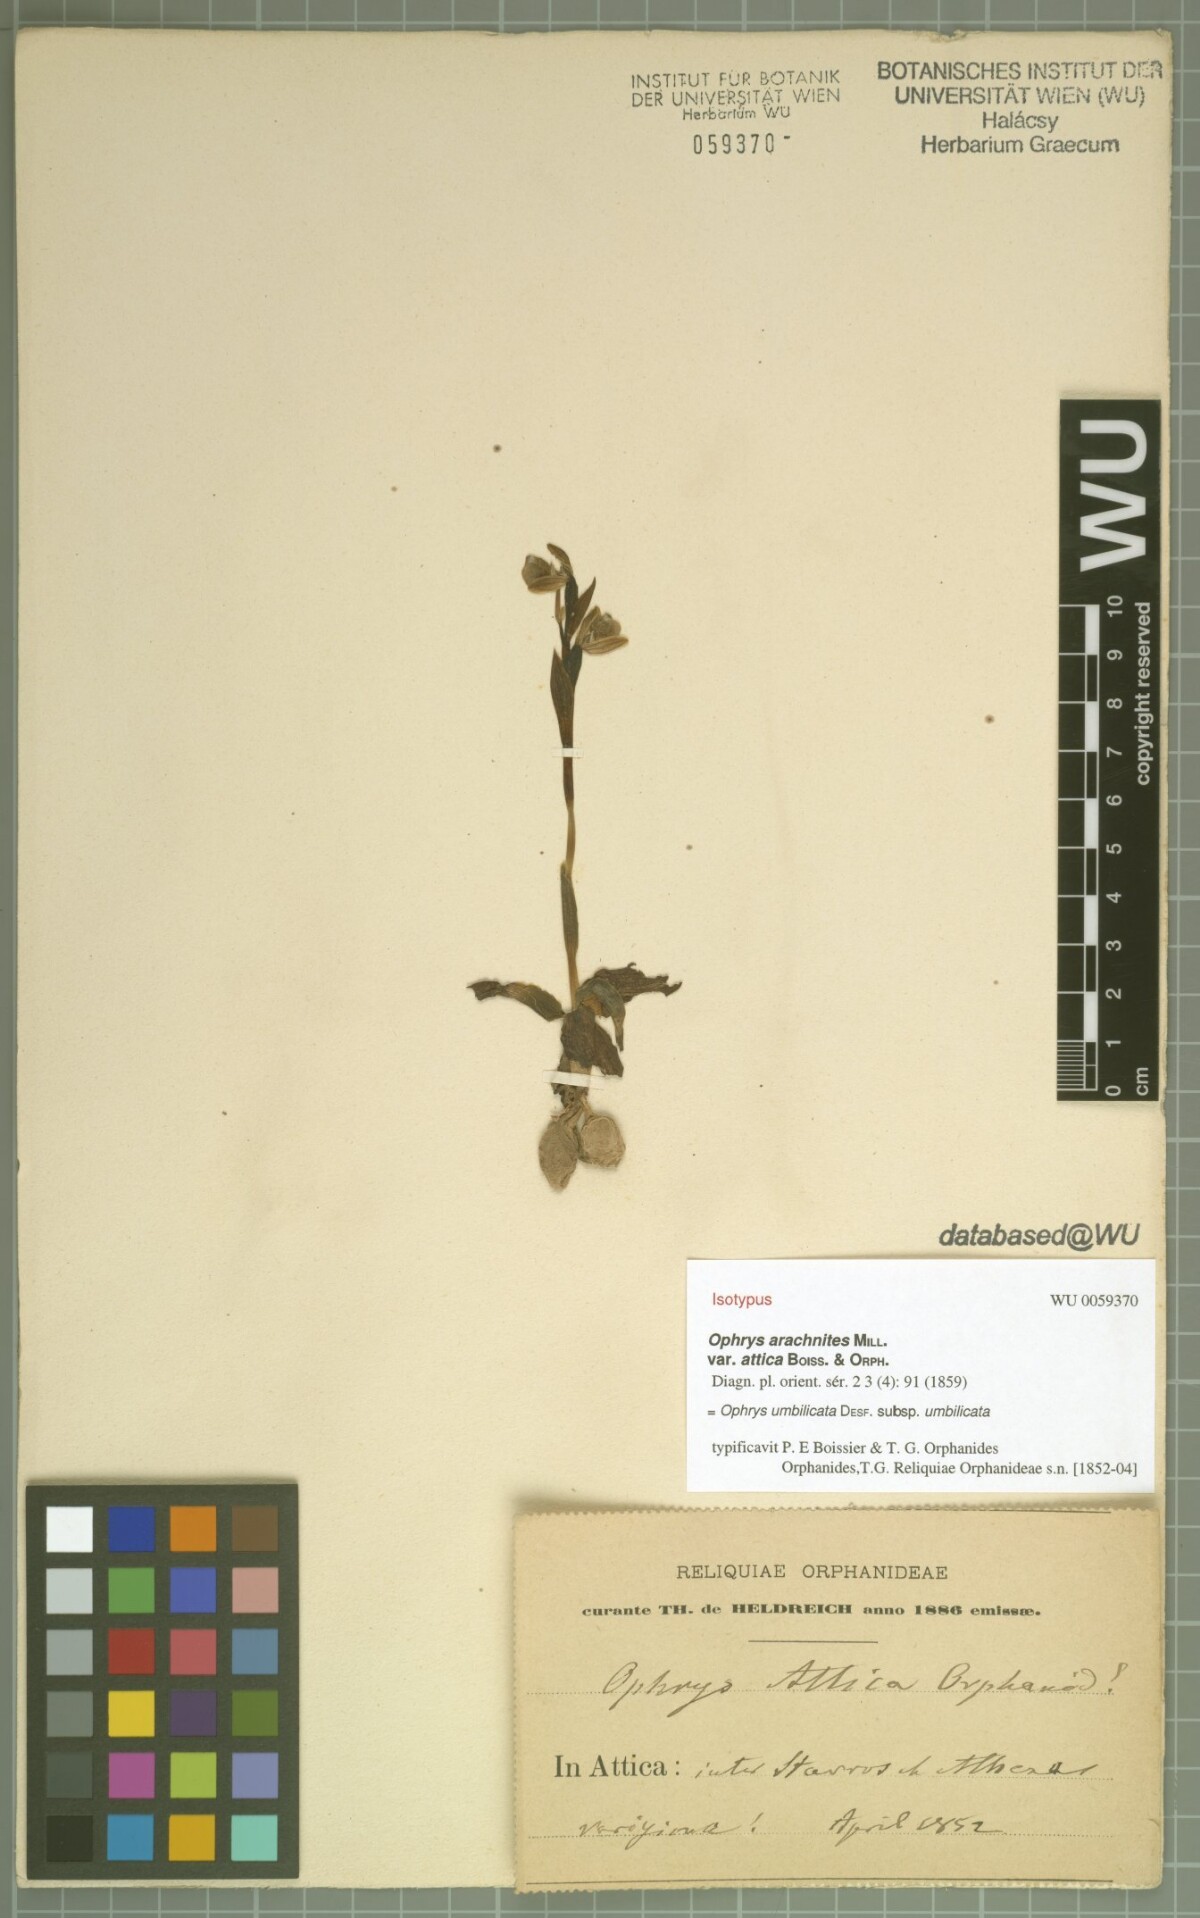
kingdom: Plantae
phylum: Tracheophyta
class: Liliopsida
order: Asparagales
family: Orchidaceae
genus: Ophrys
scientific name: Ophrys umbilicata
